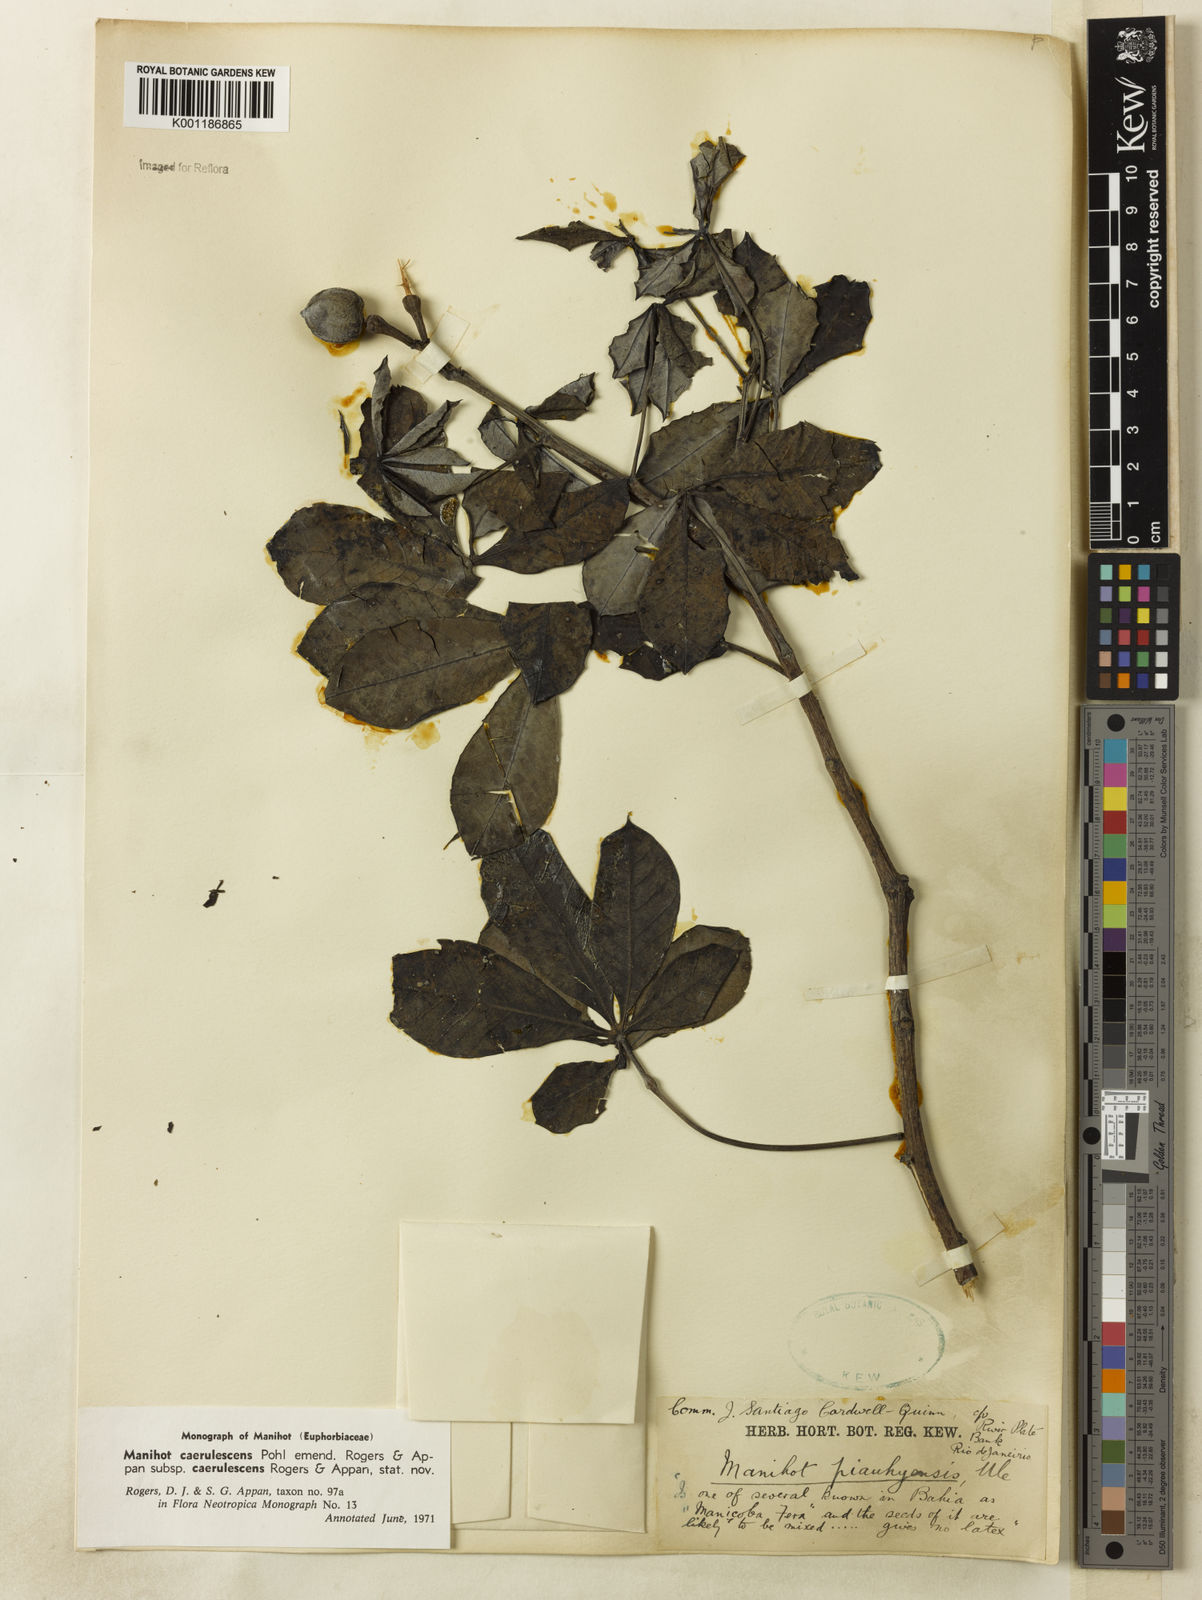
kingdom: Plantae
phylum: Tracheophyta
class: Magnoliopsida
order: Malpighiales
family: Euphorbiaceae
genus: Manihot
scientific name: Manihot caerulescens
